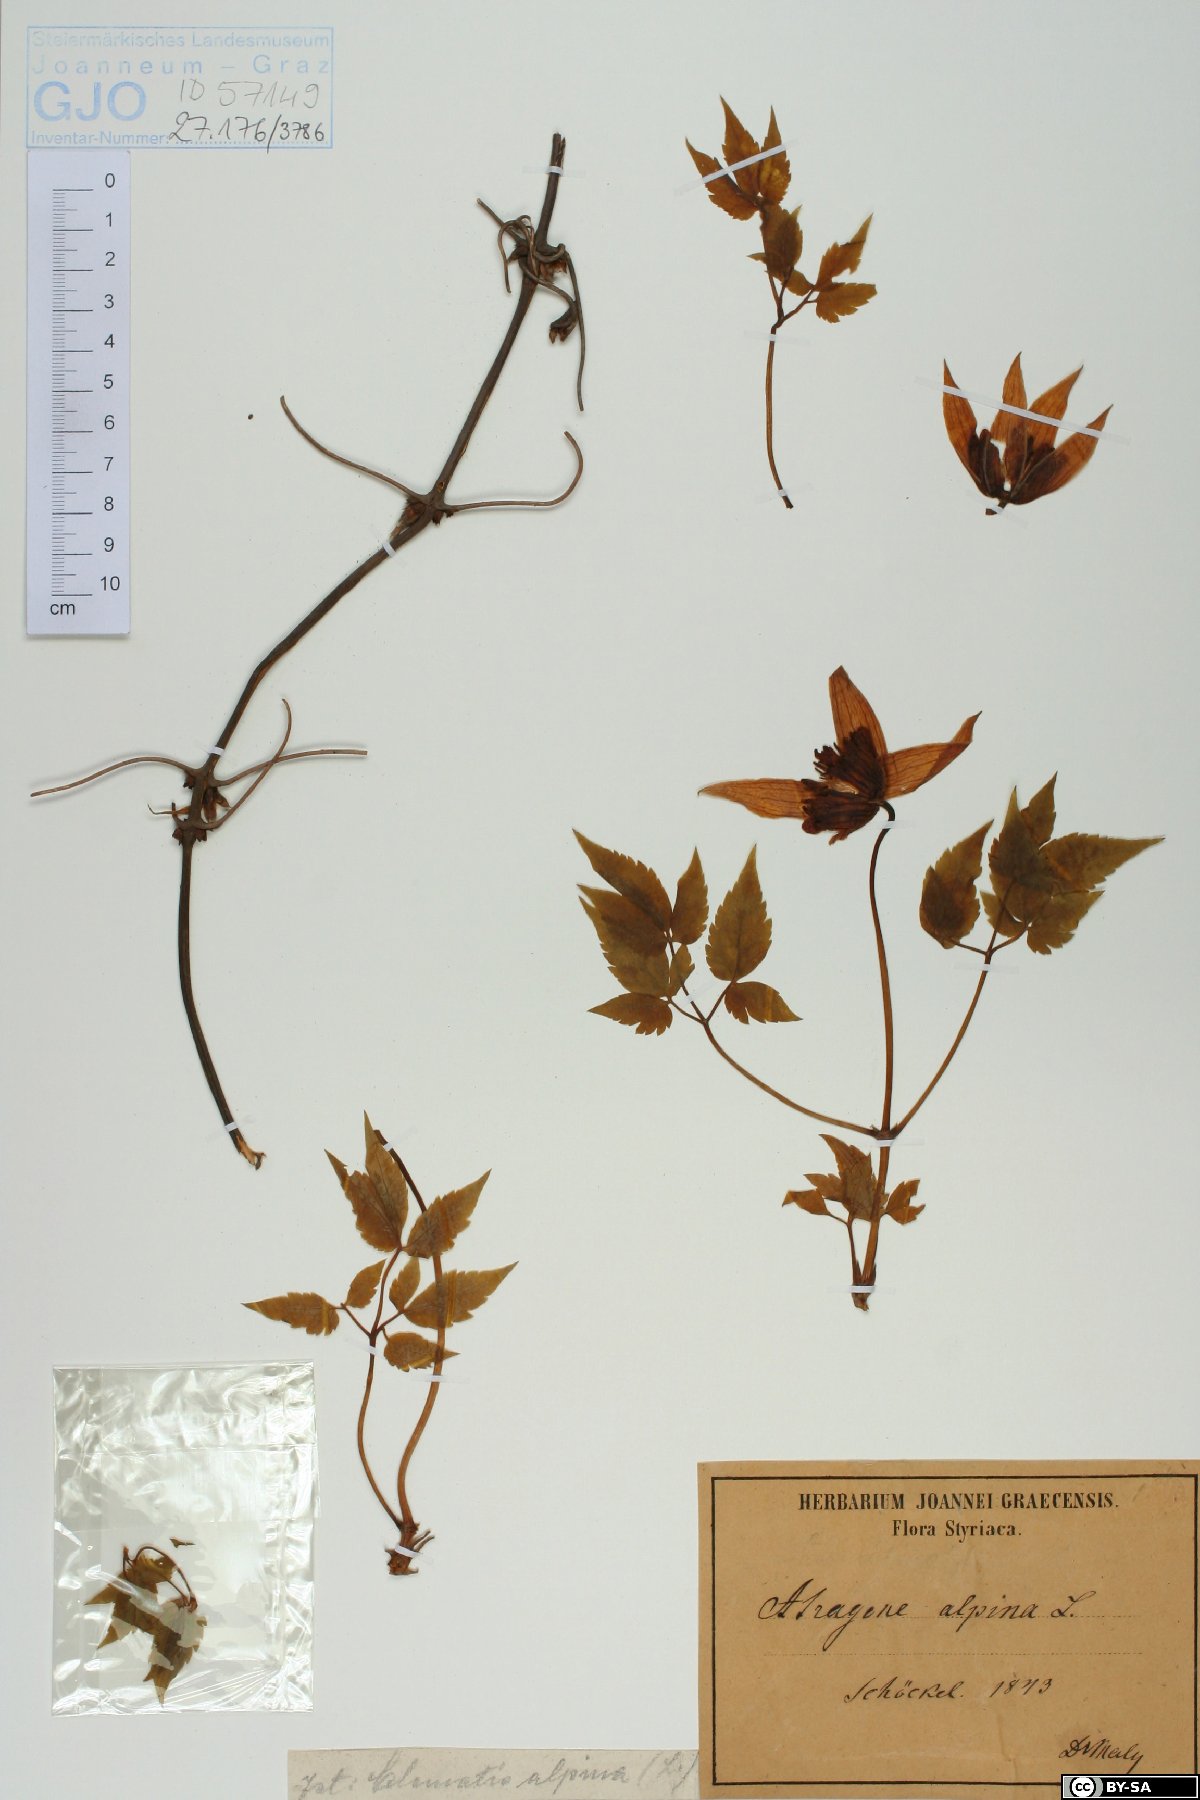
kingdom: Plantae
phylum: Tracheophyta
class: Magnoliopsida
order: Ranunculales
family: Ranunculaceae
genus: Clematis
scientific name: Clematis alpina
